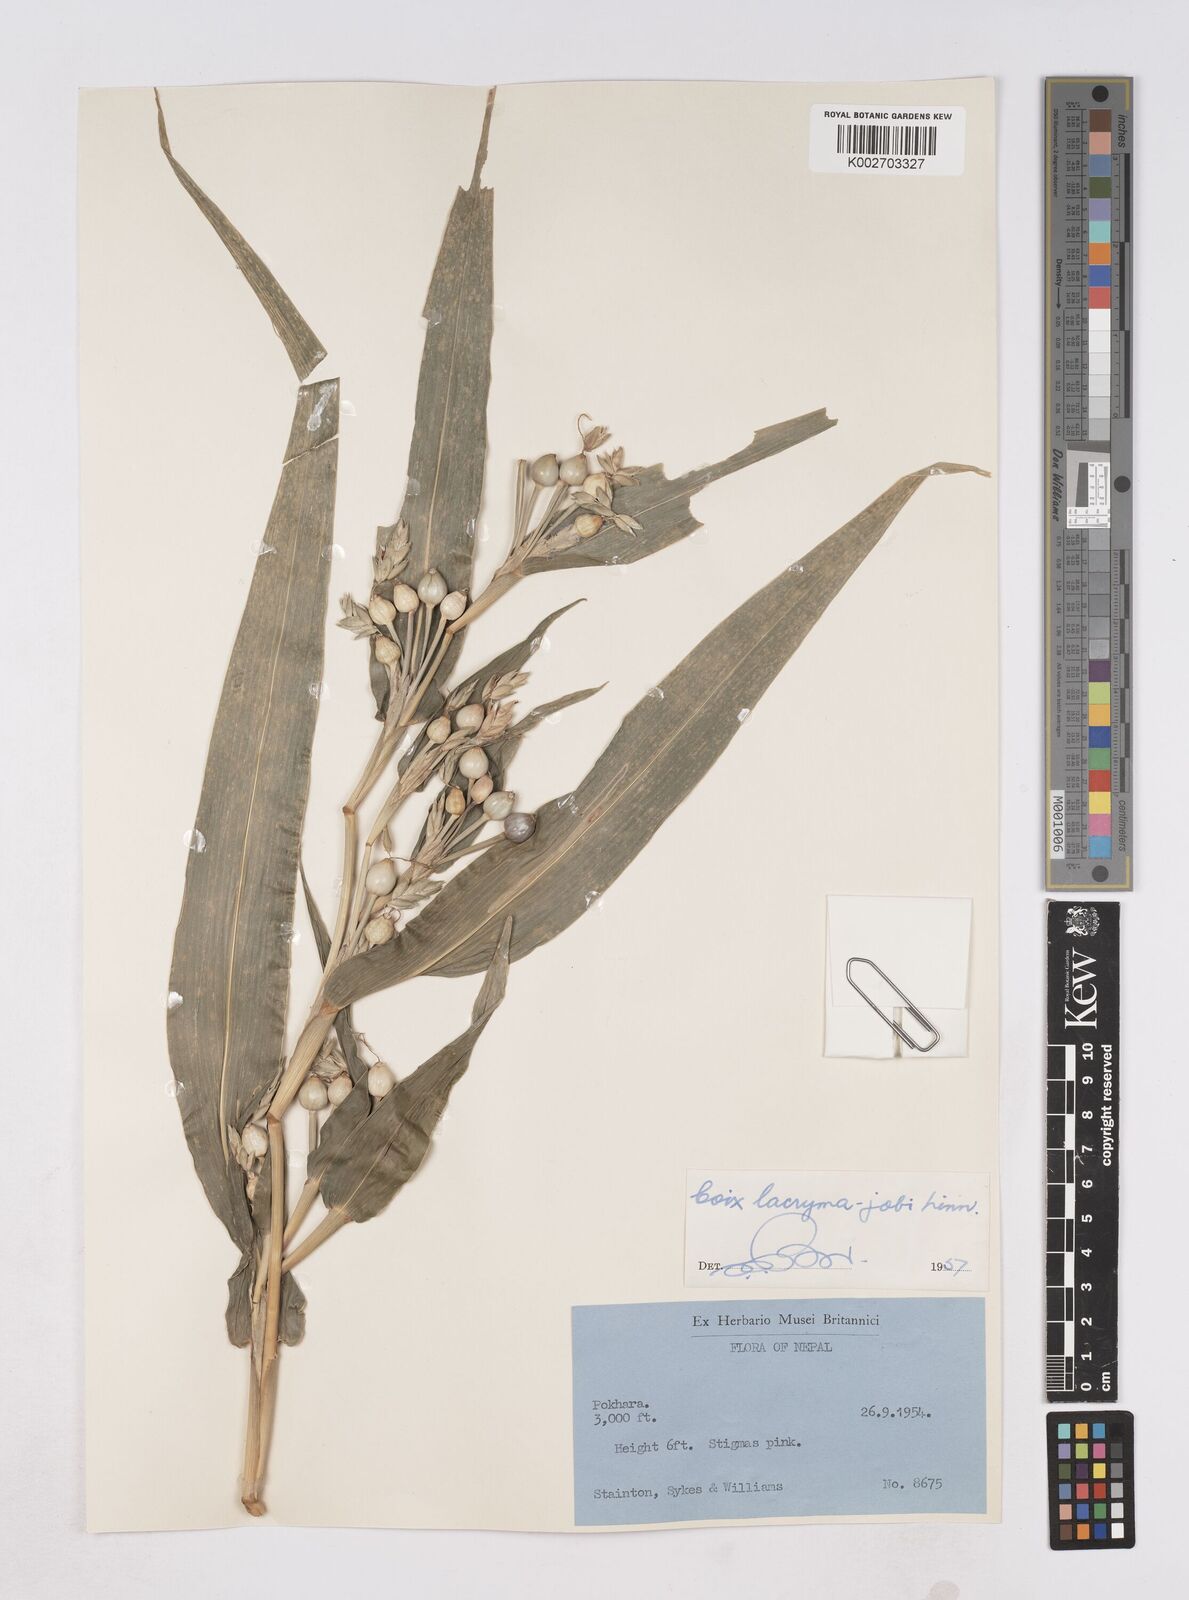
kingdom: Plantae
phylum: Tracheophyta
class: Liliopsida
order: Poales
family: Poaceae
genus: Coix
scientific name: Coix lacryma-jobi
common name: Job's tears
